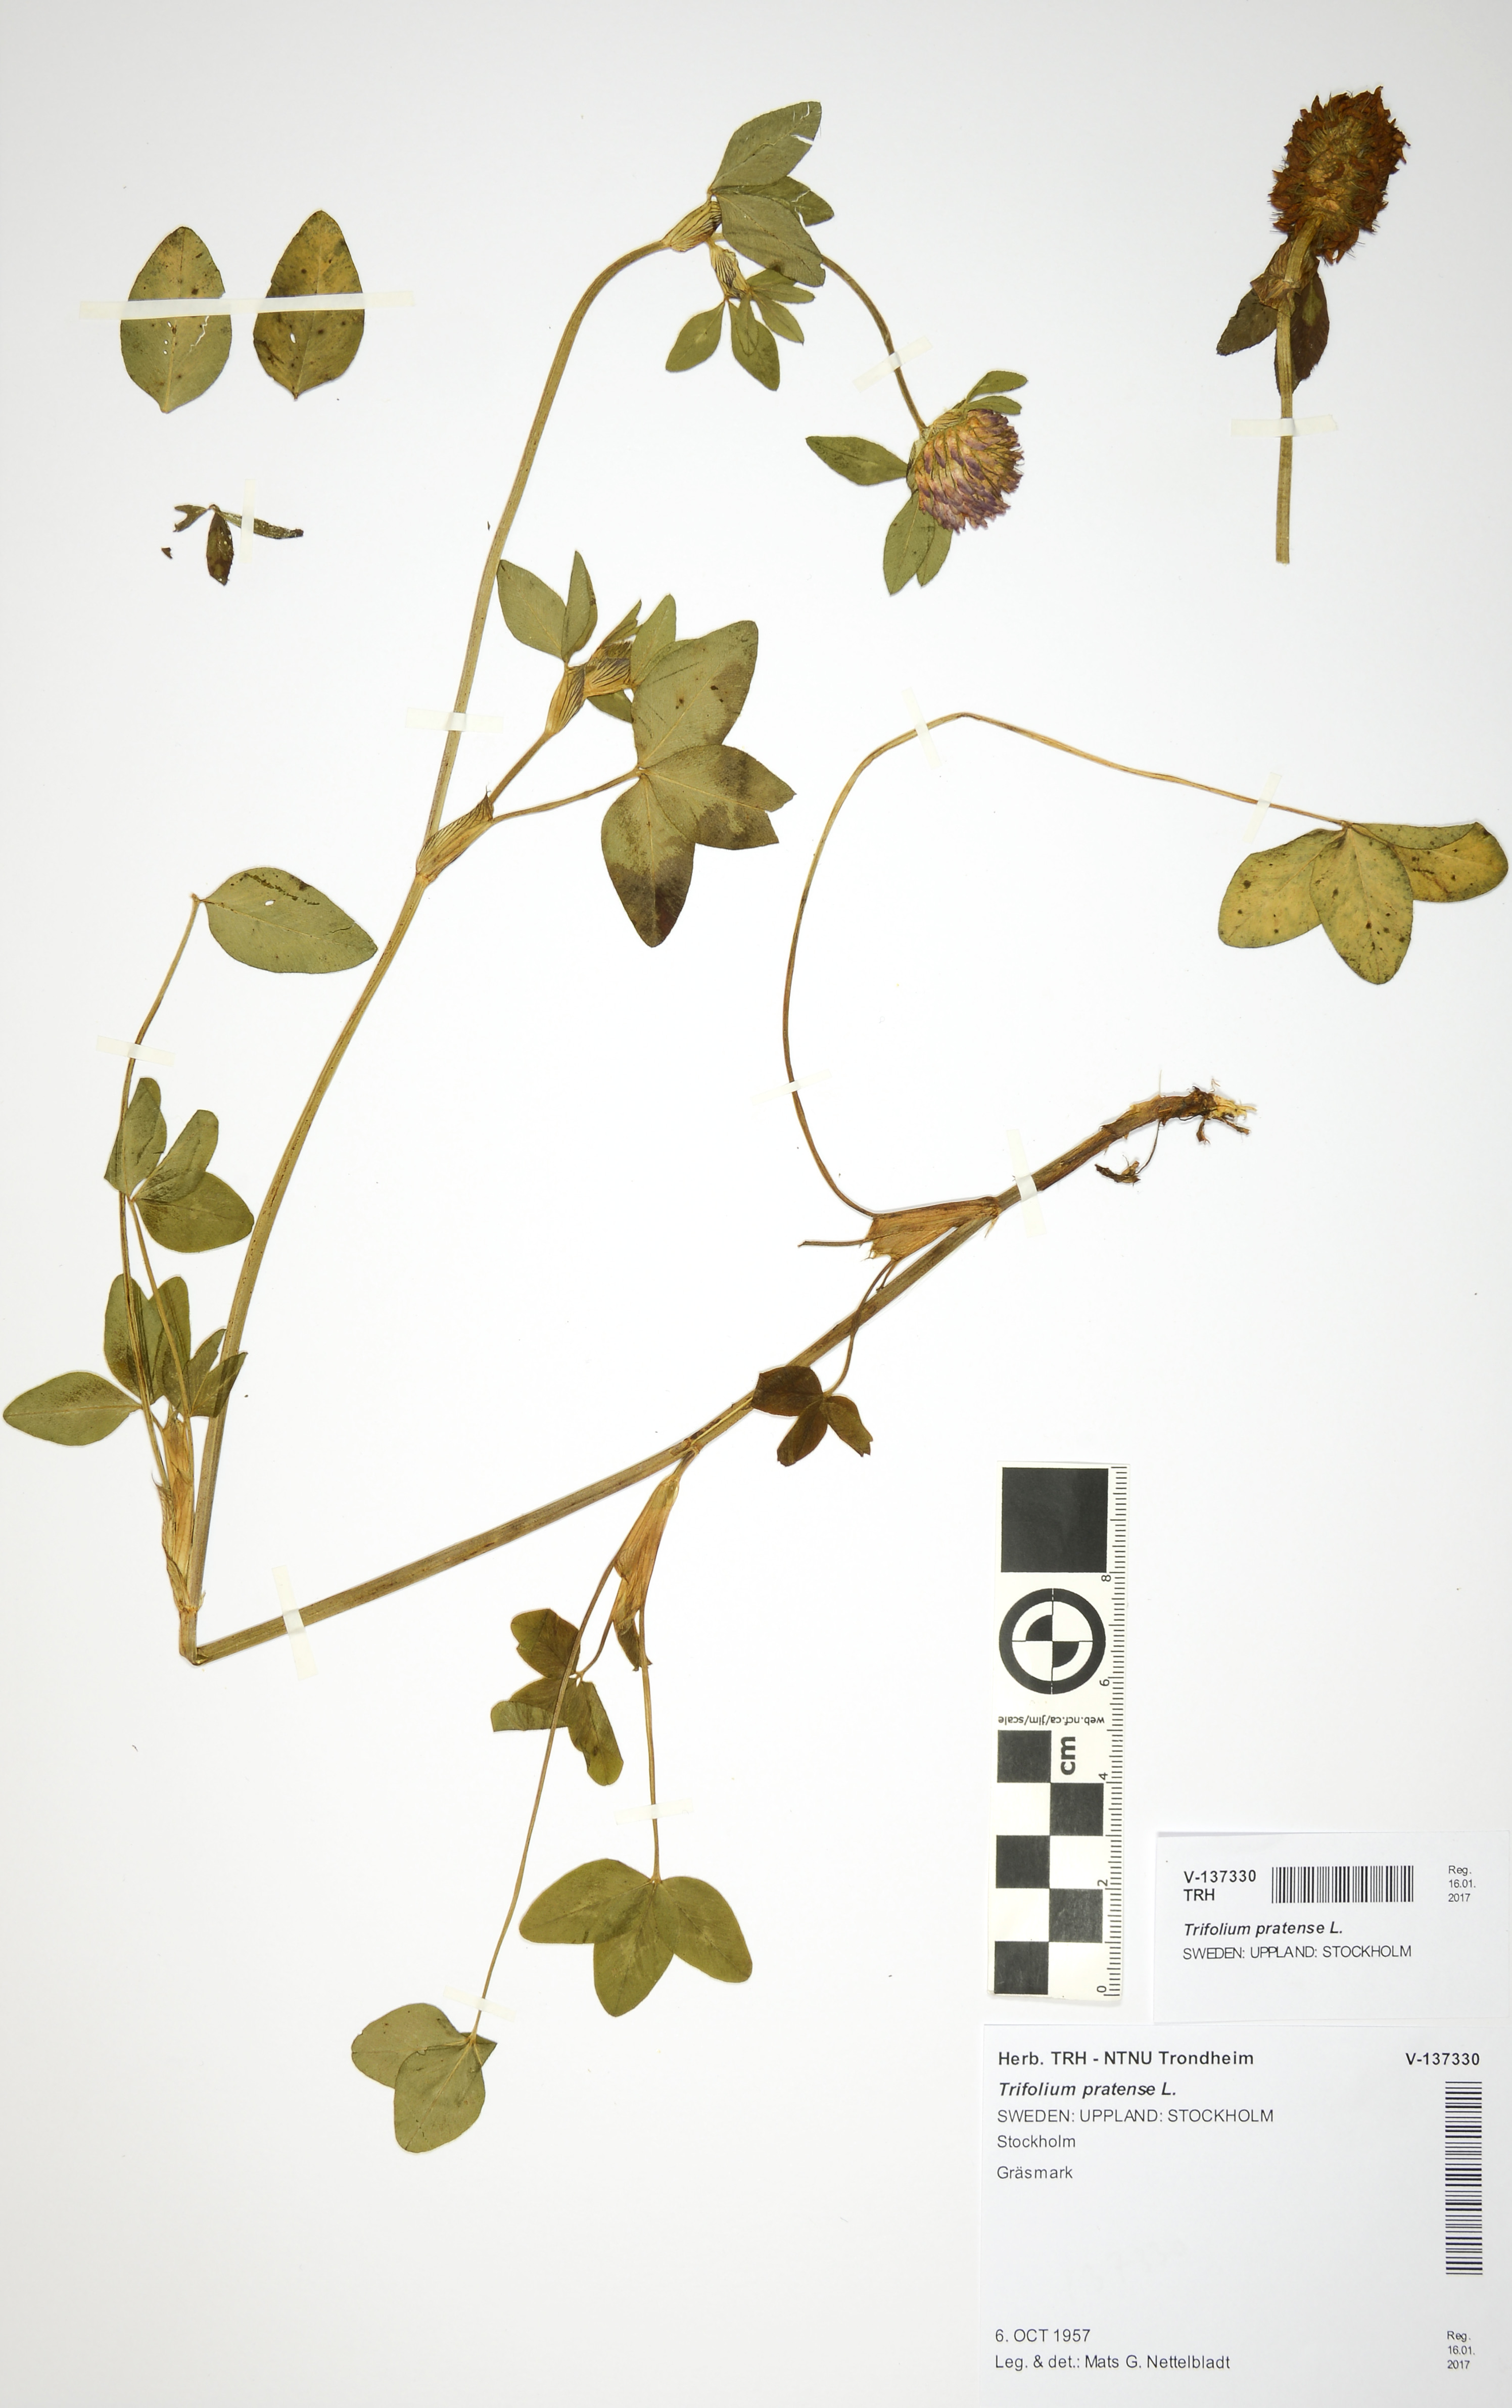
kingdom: Plantae
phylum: Tracheophyta
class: Magnoliopsida
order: Fabales
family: Fabaceae
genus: Trifolium
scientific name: Trifolium pratense
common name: Red clover
